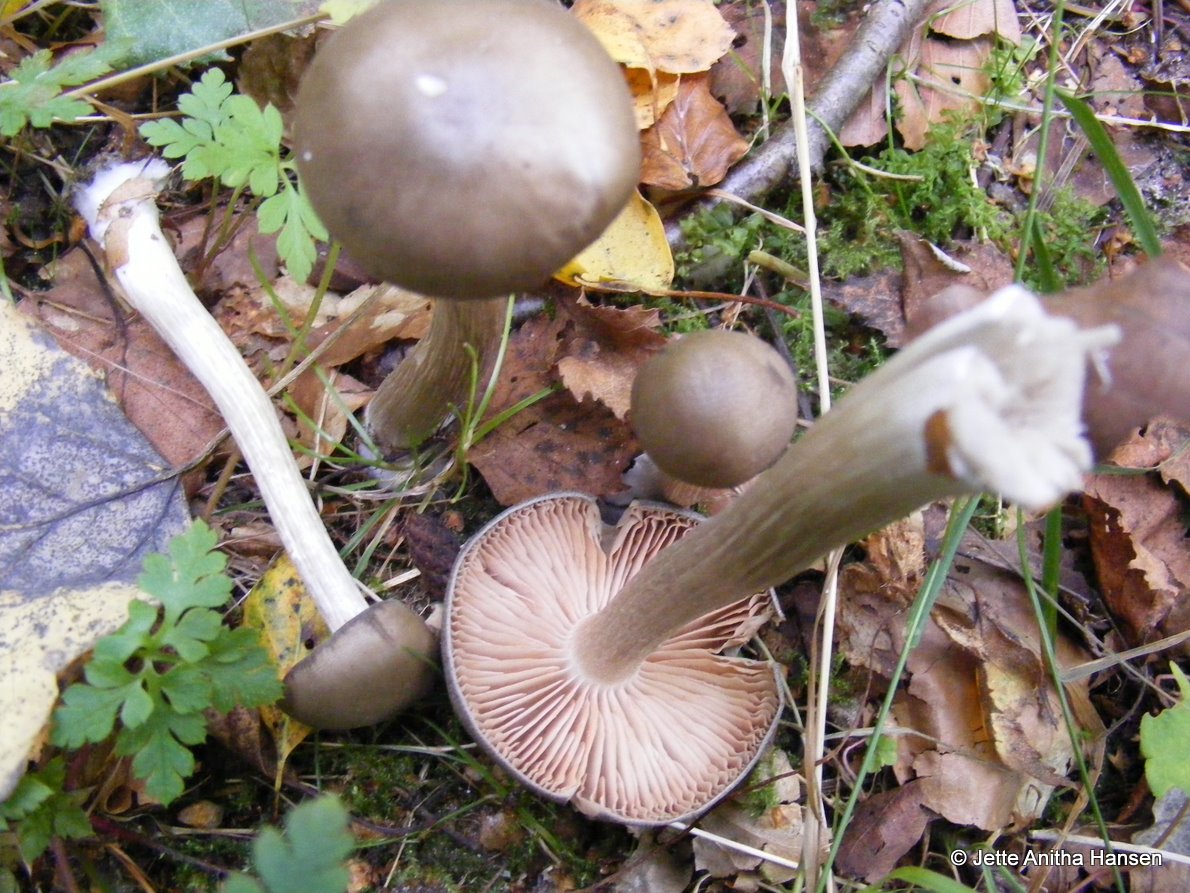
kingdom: Fungi
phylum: Basidiomycota
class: Agaricomycetes
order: Agaricales
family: Entolomataceae
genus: Entoloma
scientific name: Entoloma sericatum
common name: rank rødblad
